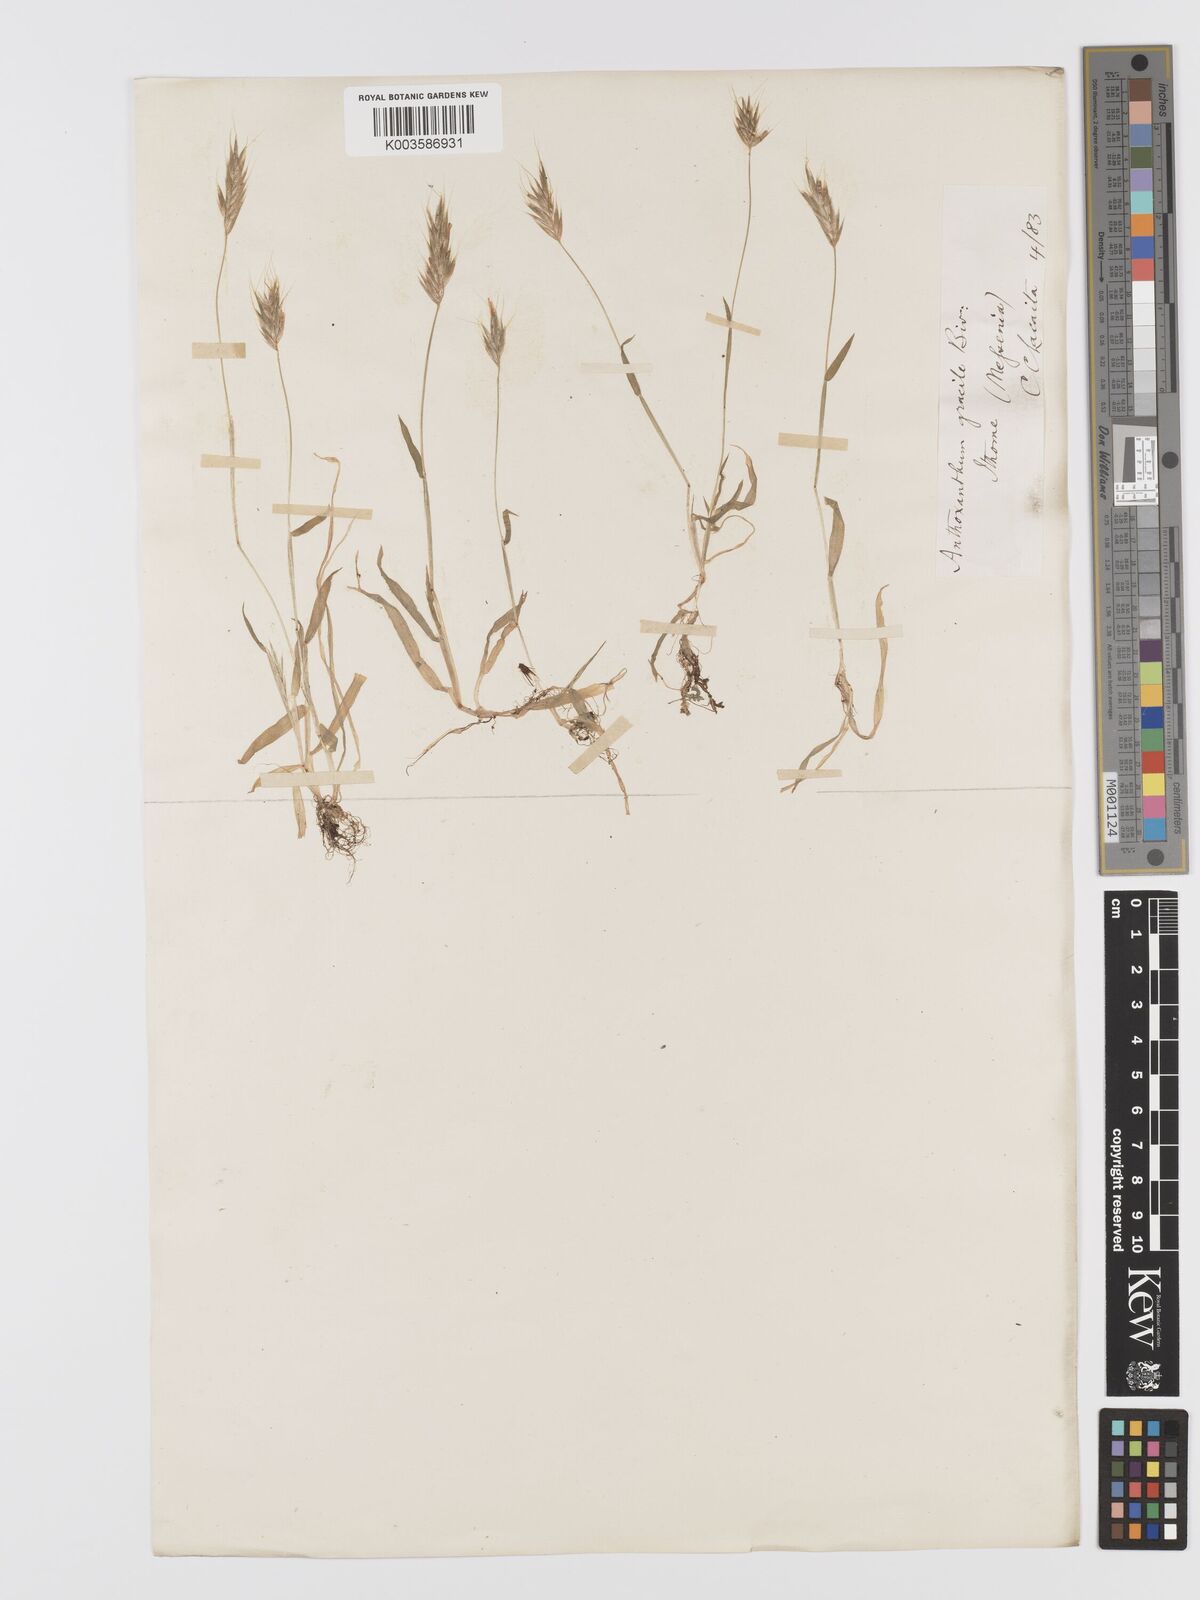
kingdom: Plantae
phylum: Tracheophyta
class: Liliopsida
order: Poales
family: Poaceae
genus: Anthoxanthum
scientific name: Anthoxanthum gracile
